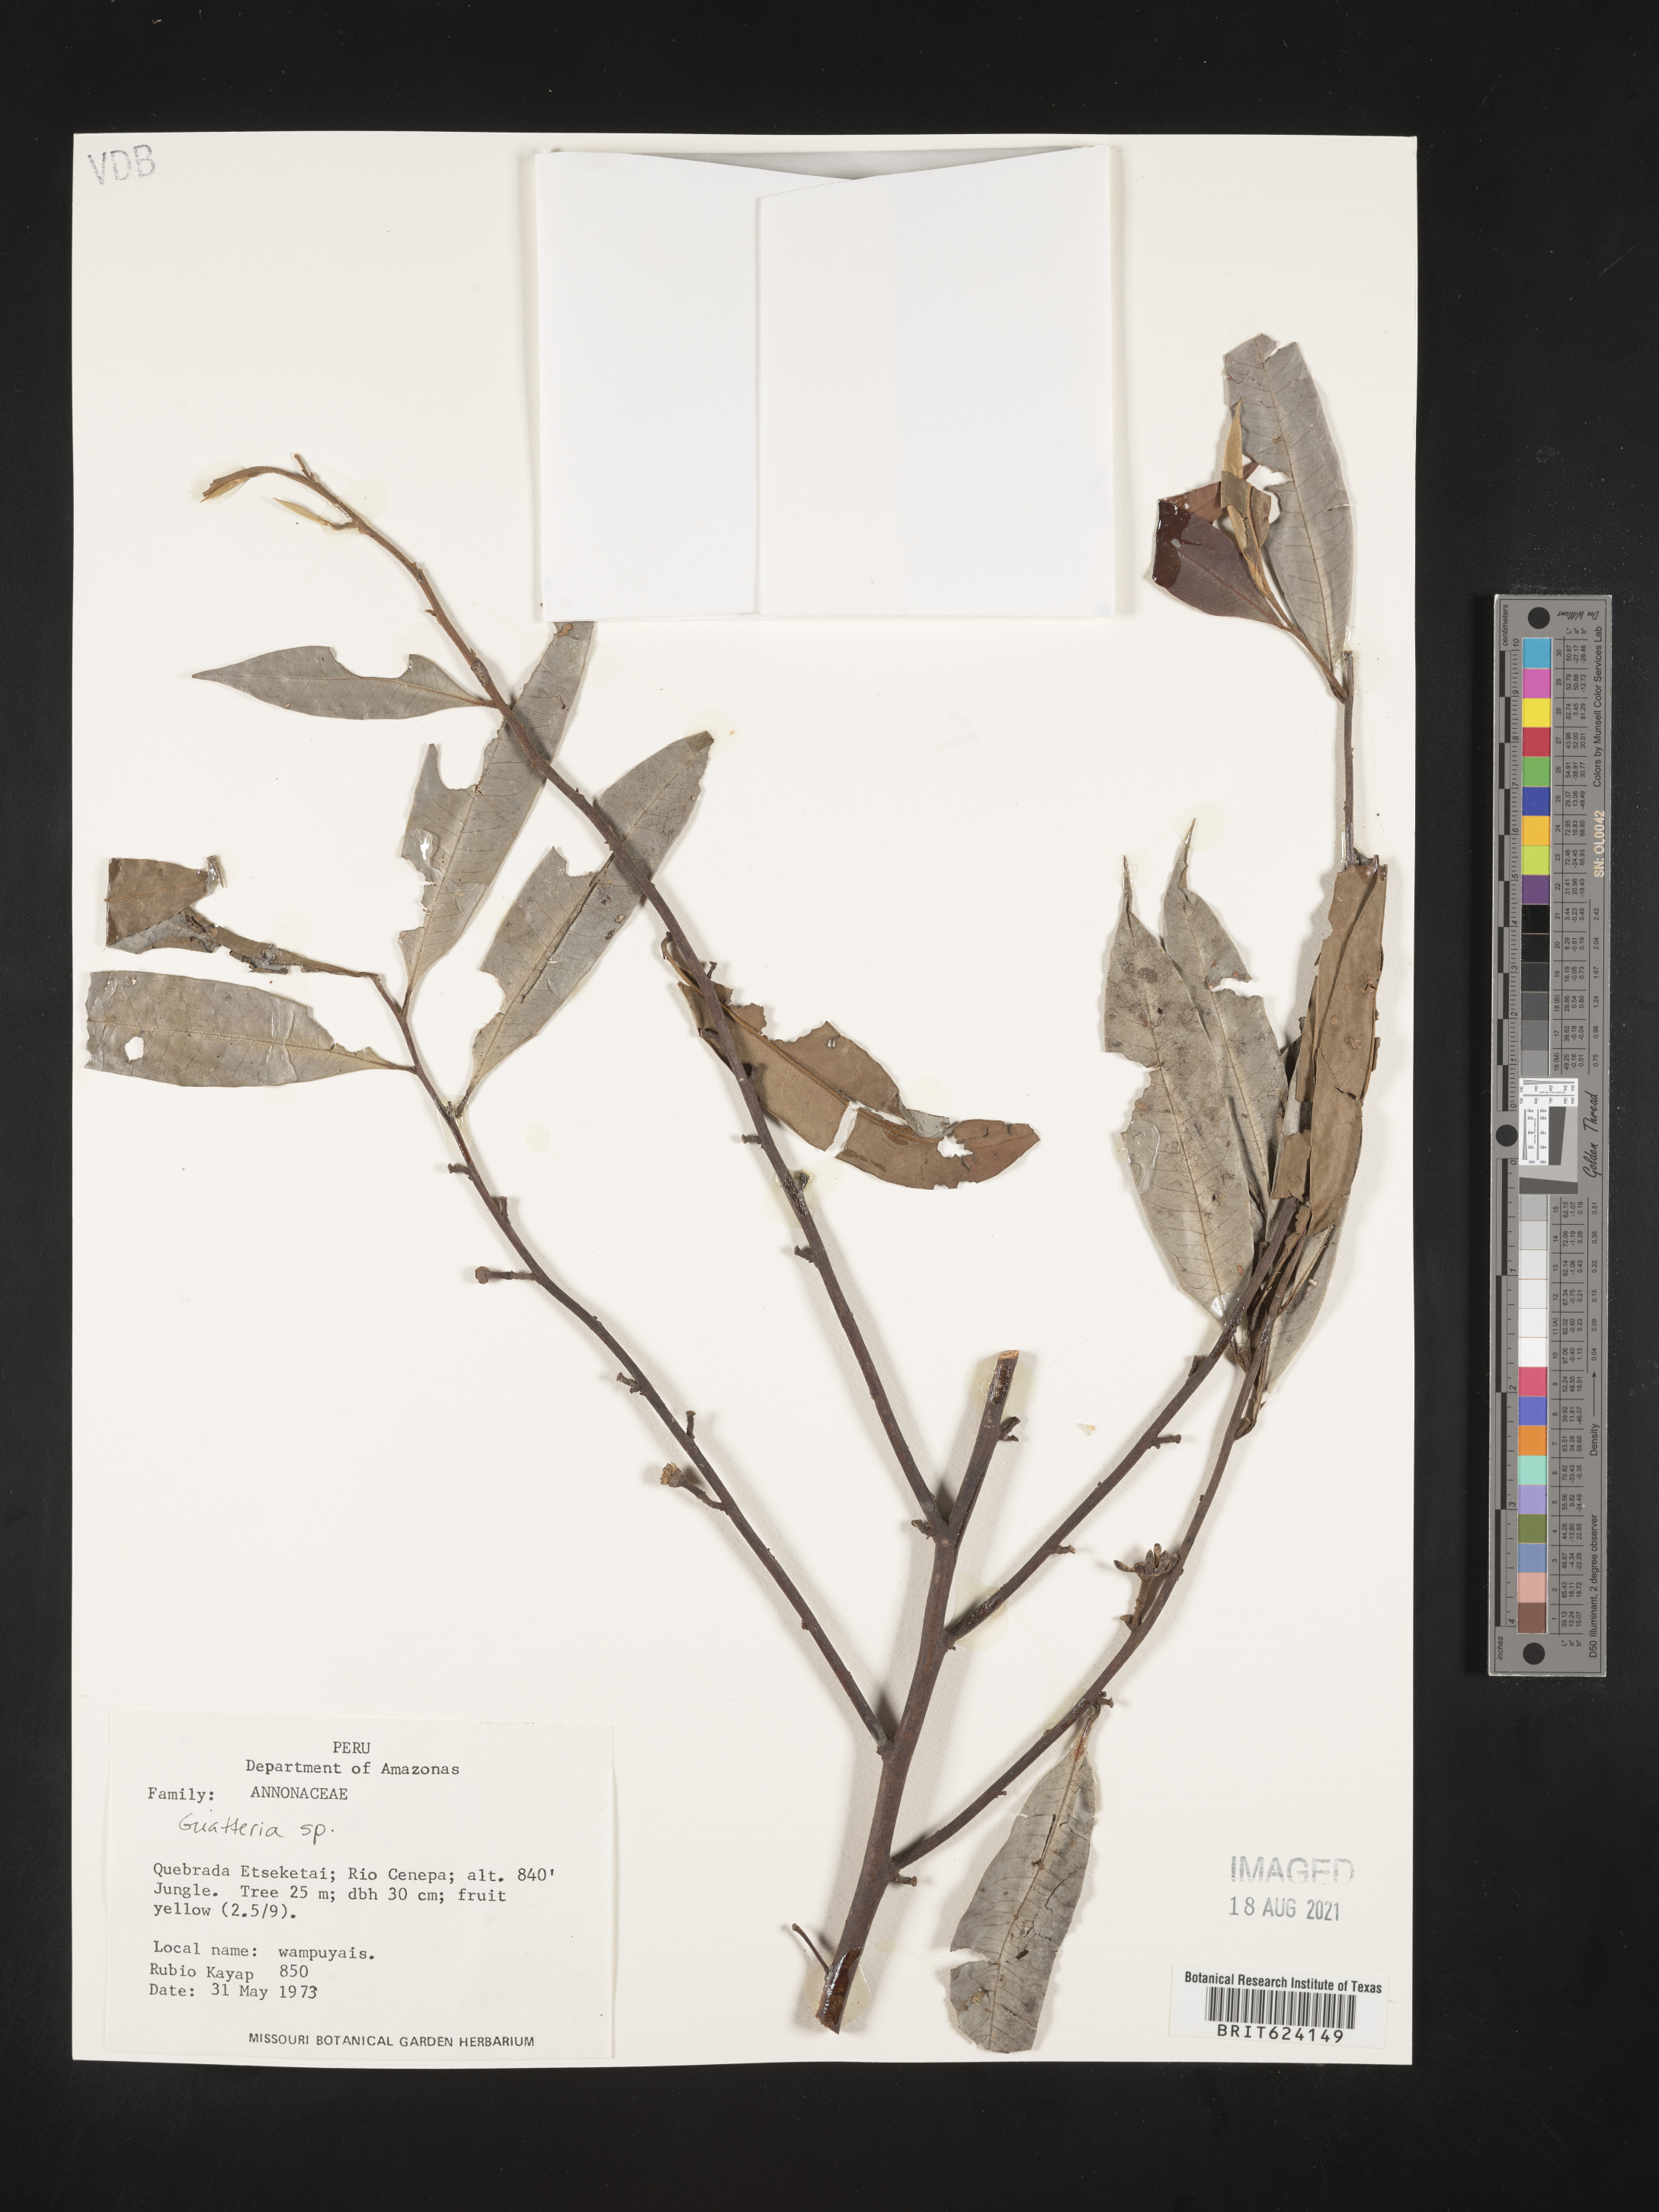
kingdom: Plantae
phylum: Tracheophyta
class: Magnoliopsida
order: Magnoliales
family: Annonaceae
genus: Guatteria
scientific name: Guatteria
